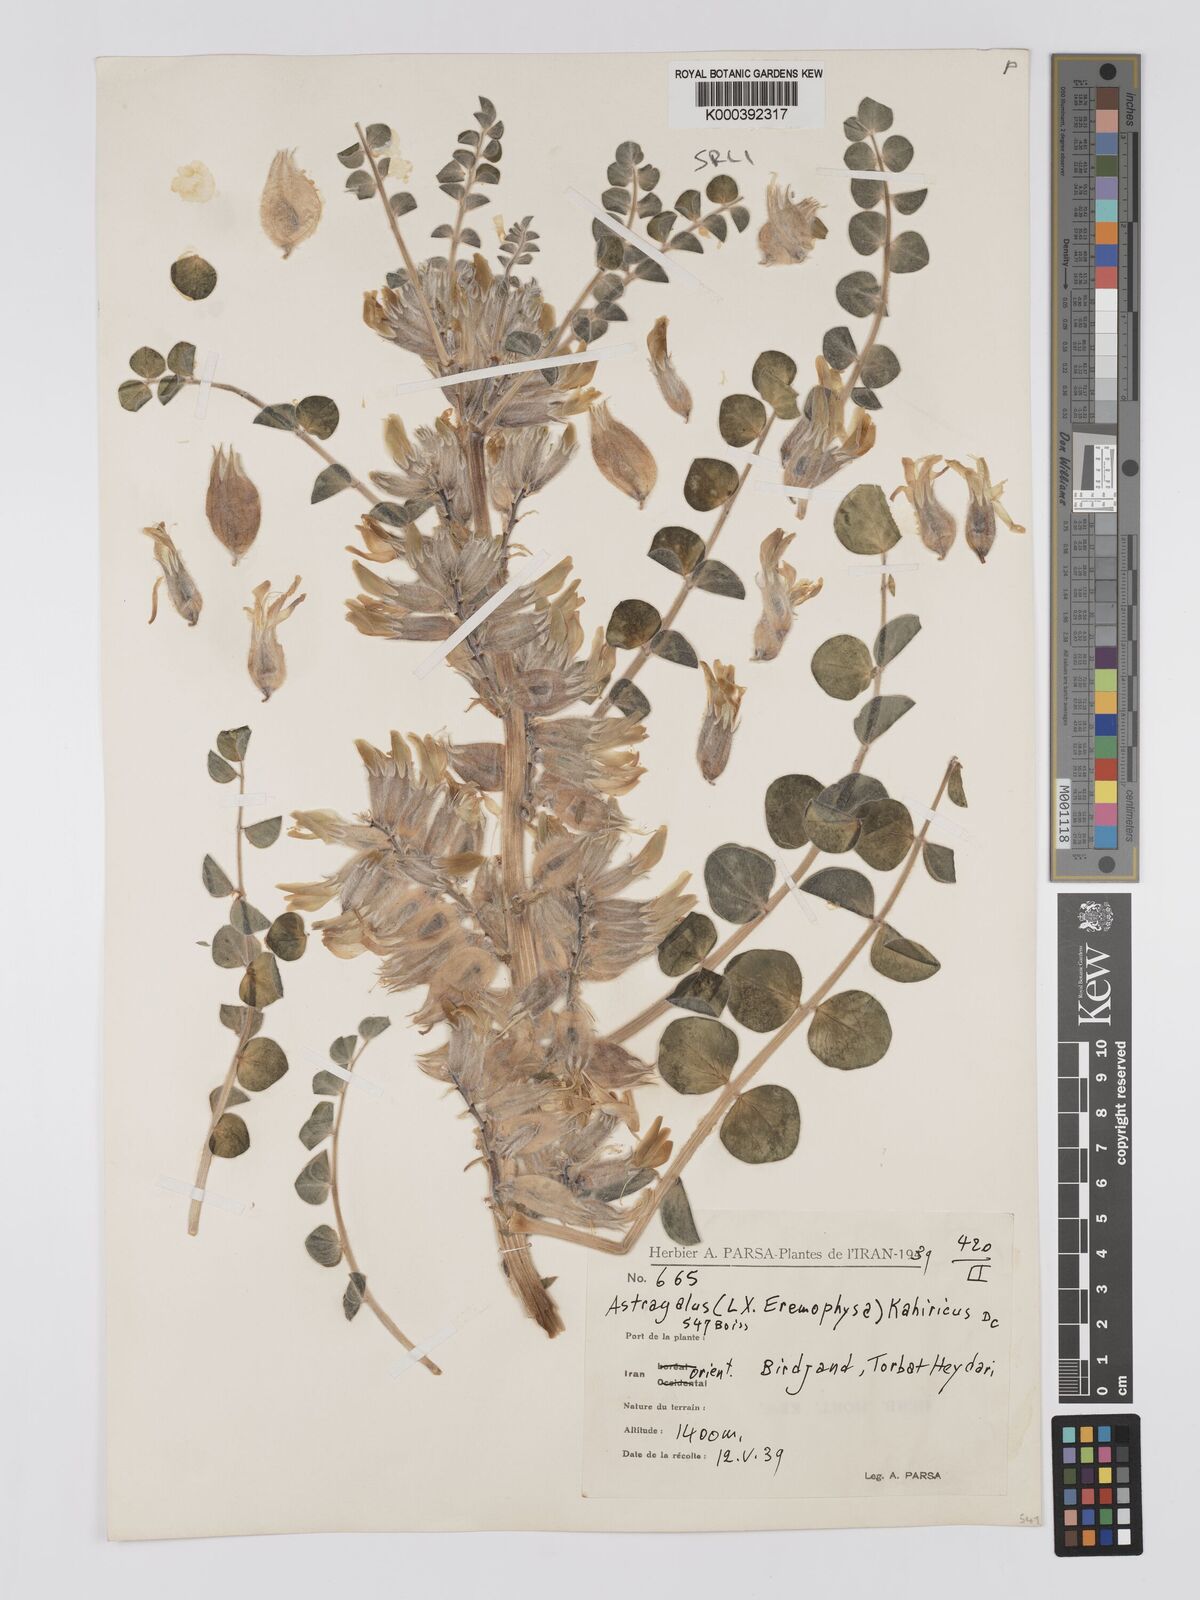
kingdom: Plantae
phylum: Tracheophyta
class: Magnoliopsida
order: Fabales
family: Fabaceae
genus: Astragalus
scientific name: Astragalus kahiricus
